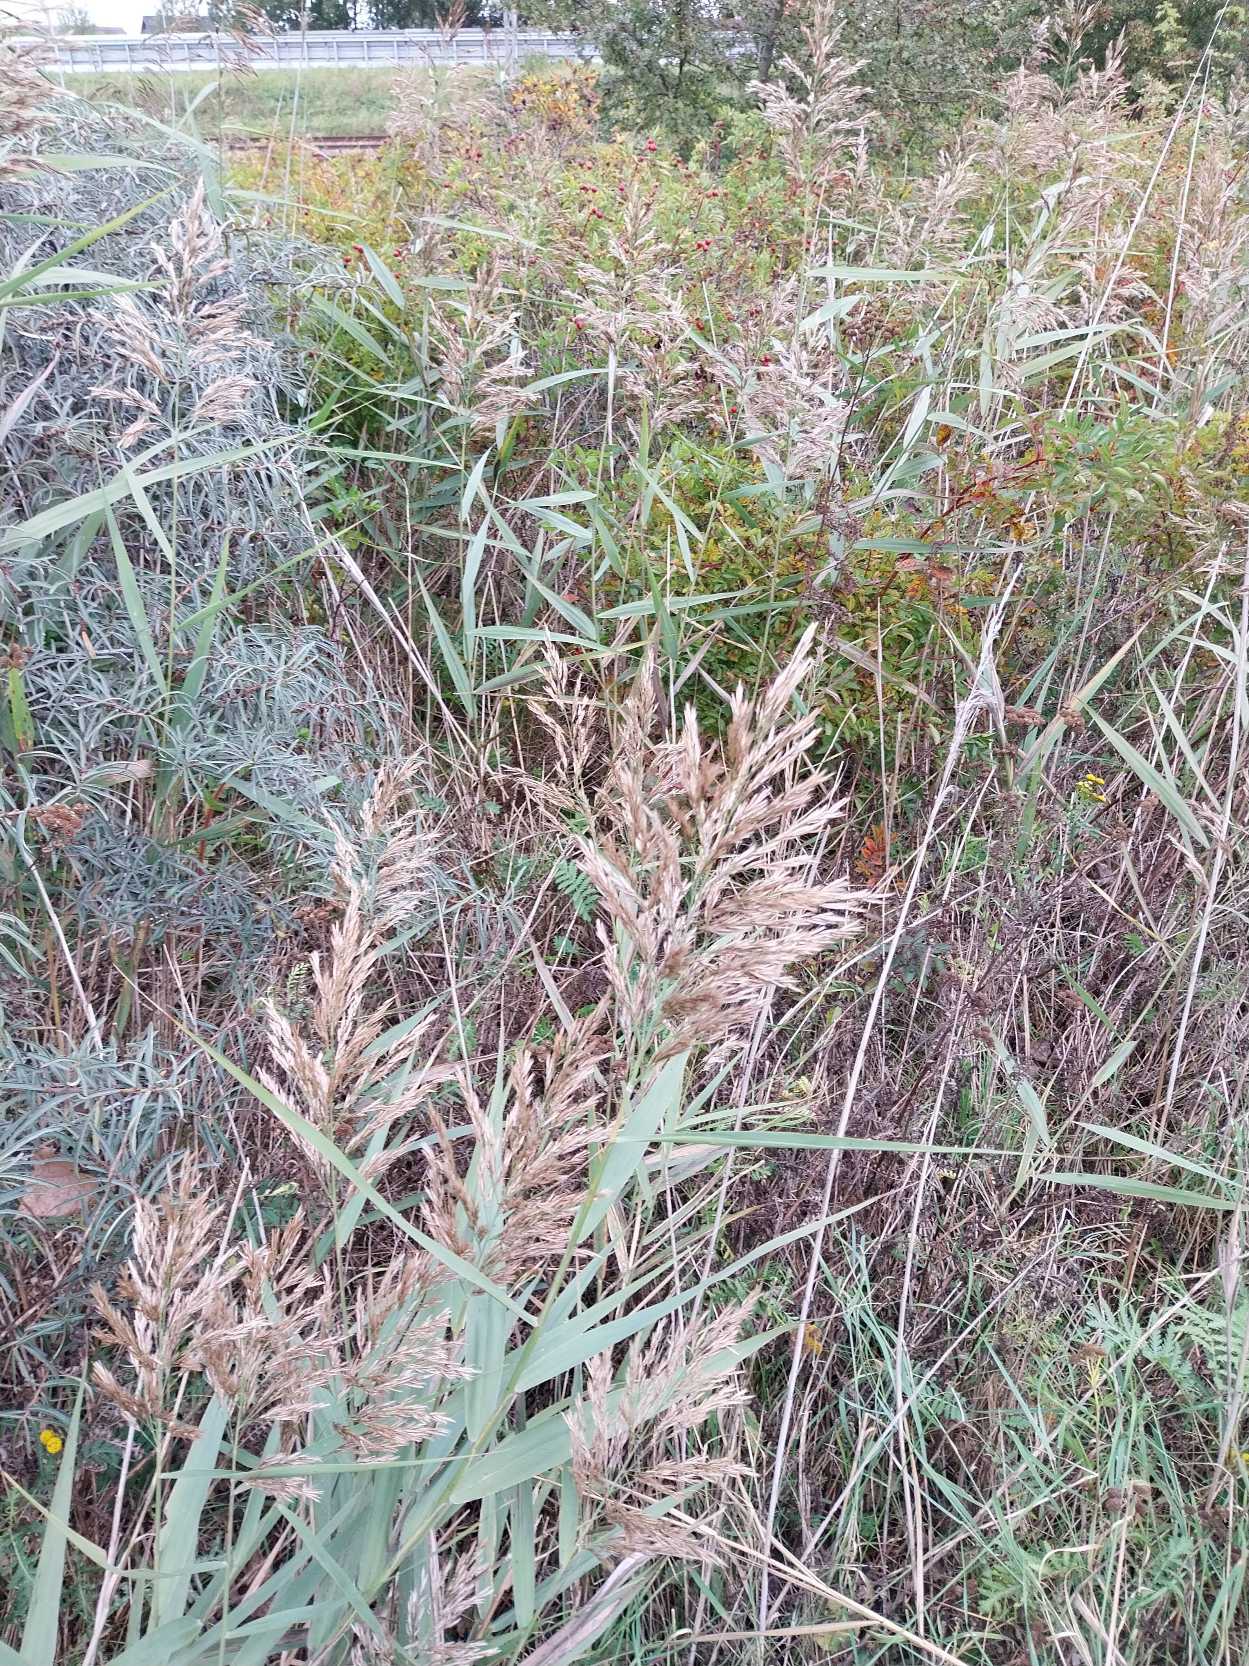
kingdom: Plantae
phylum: Tracheophyta
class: Liliopsida
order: Poales
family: Poaceae
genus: Phragmites
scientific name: Phragmites australis
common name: Tagrør
